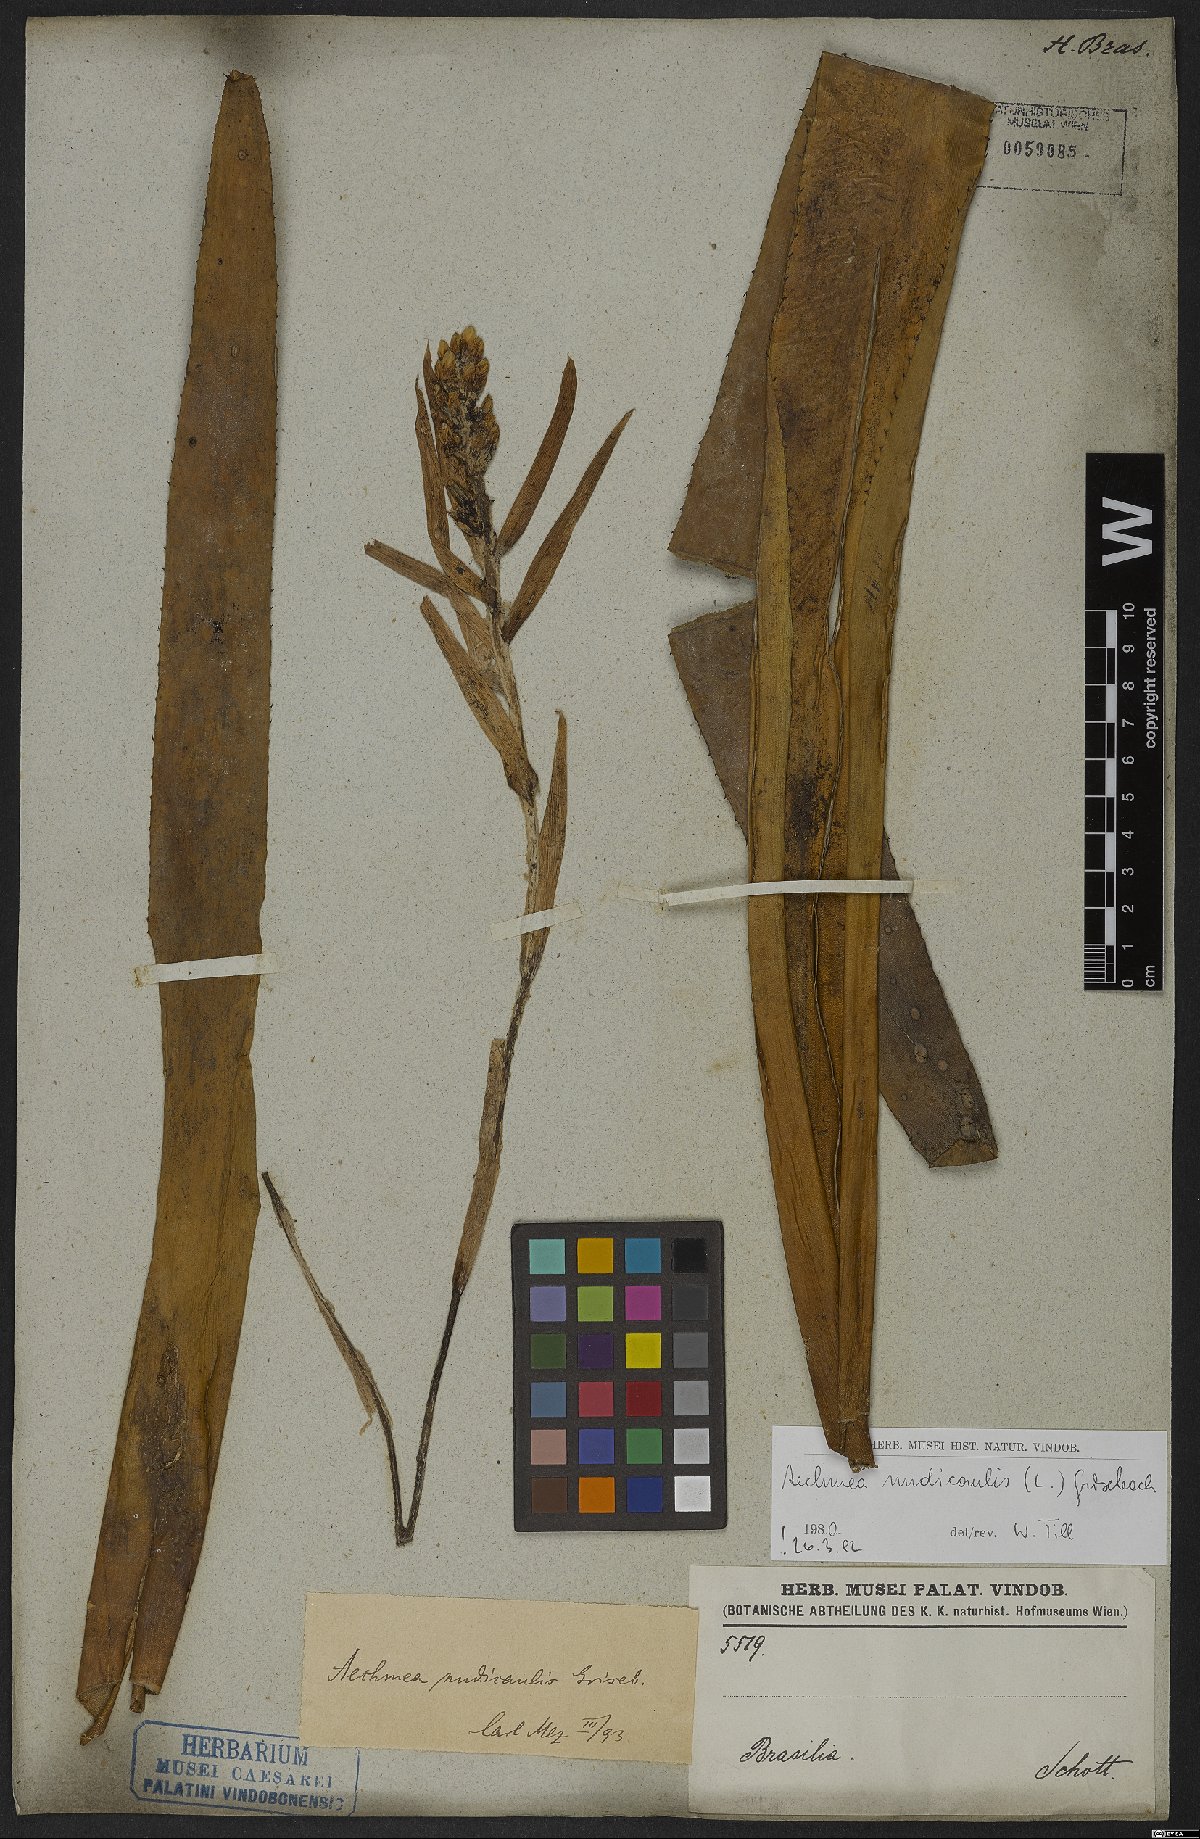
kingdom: Plantae
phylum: Tracheophyta
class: Liliopsida
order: Poales
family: Bromeliaceae
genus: Aechmea
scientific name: Aechmea nudicaulis
